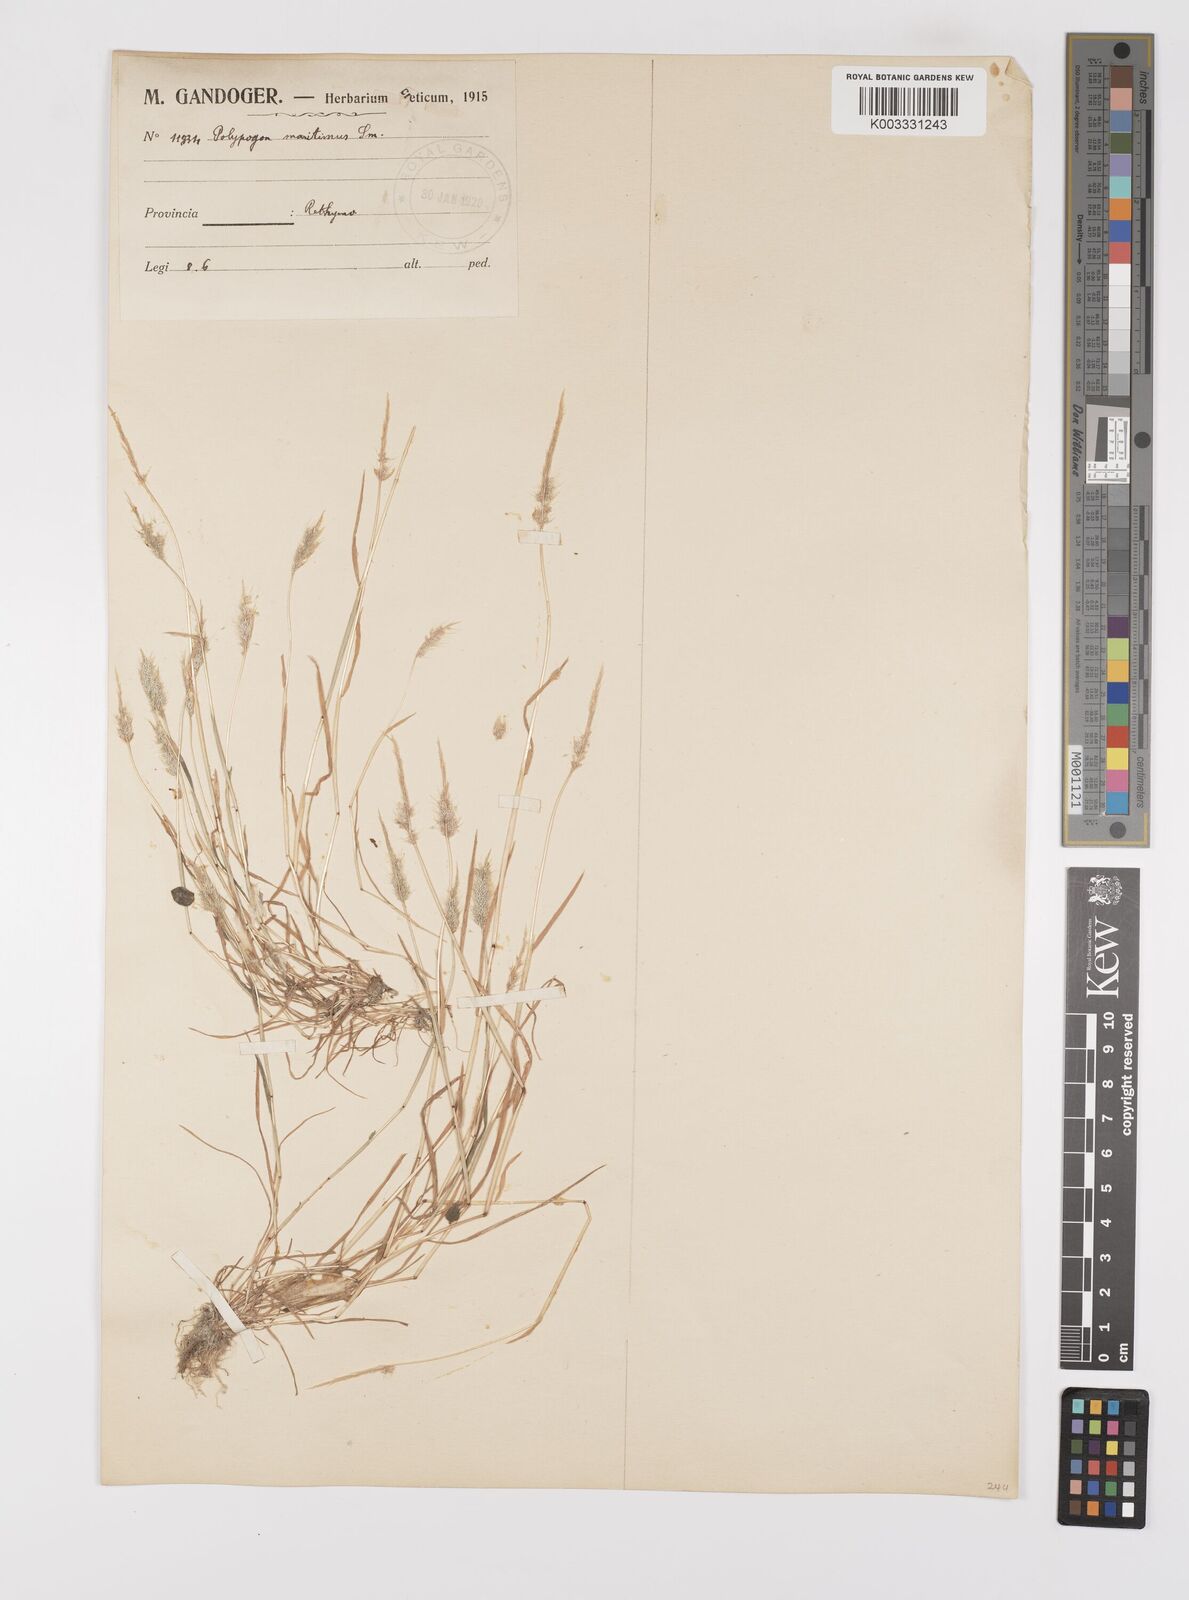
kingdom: Plantae
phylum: Tracheophyta
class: Liliopsida
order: Poales
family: Poaceae
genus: Polypogon
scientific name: Polypogon maritimus
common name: Mediterranean rabbitsfoot grass
